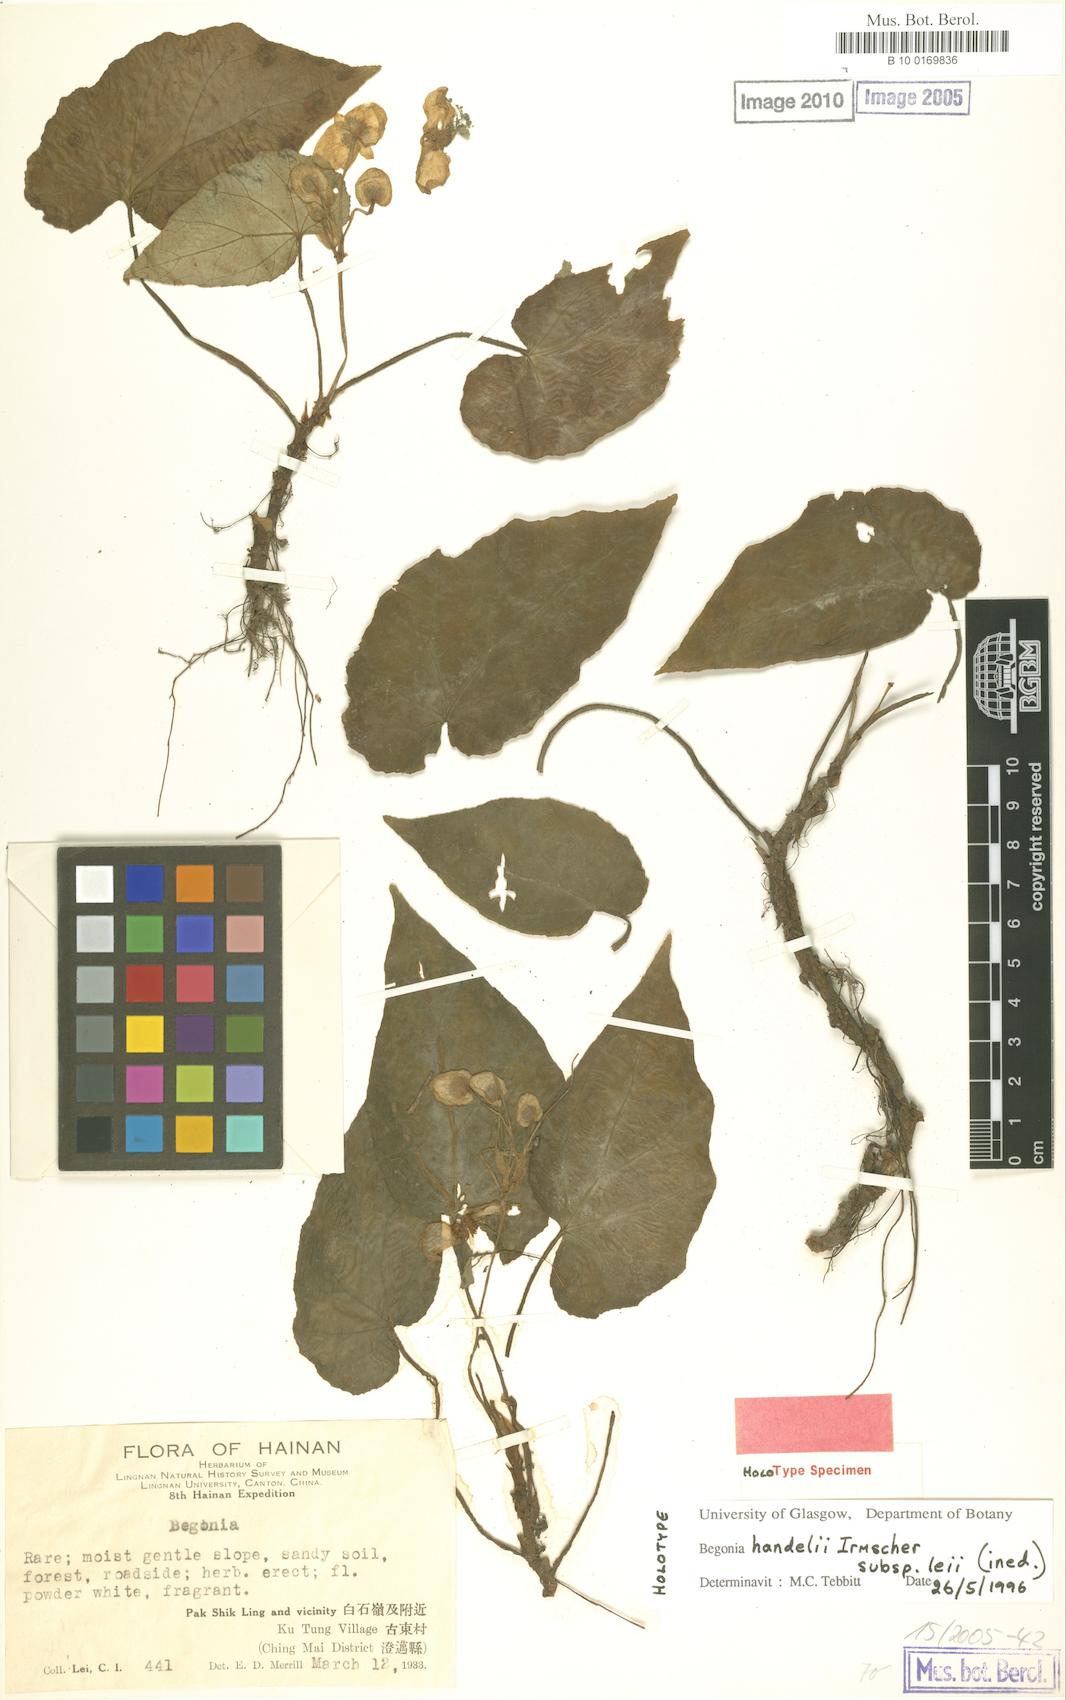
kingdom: Plantae
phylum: Tracheophyta
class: Magnoliopsida
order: Cucurbitales
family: Begoniaceae
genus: Begonia
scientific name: Begonia handelii
